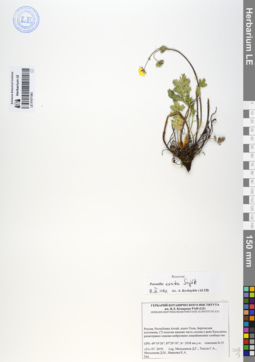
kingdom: Plantae
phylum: Tracheophyta
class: Magnoliopsida
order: Rosales
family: Rosaceae
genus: Potentilla
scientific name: Potentilla exuta
